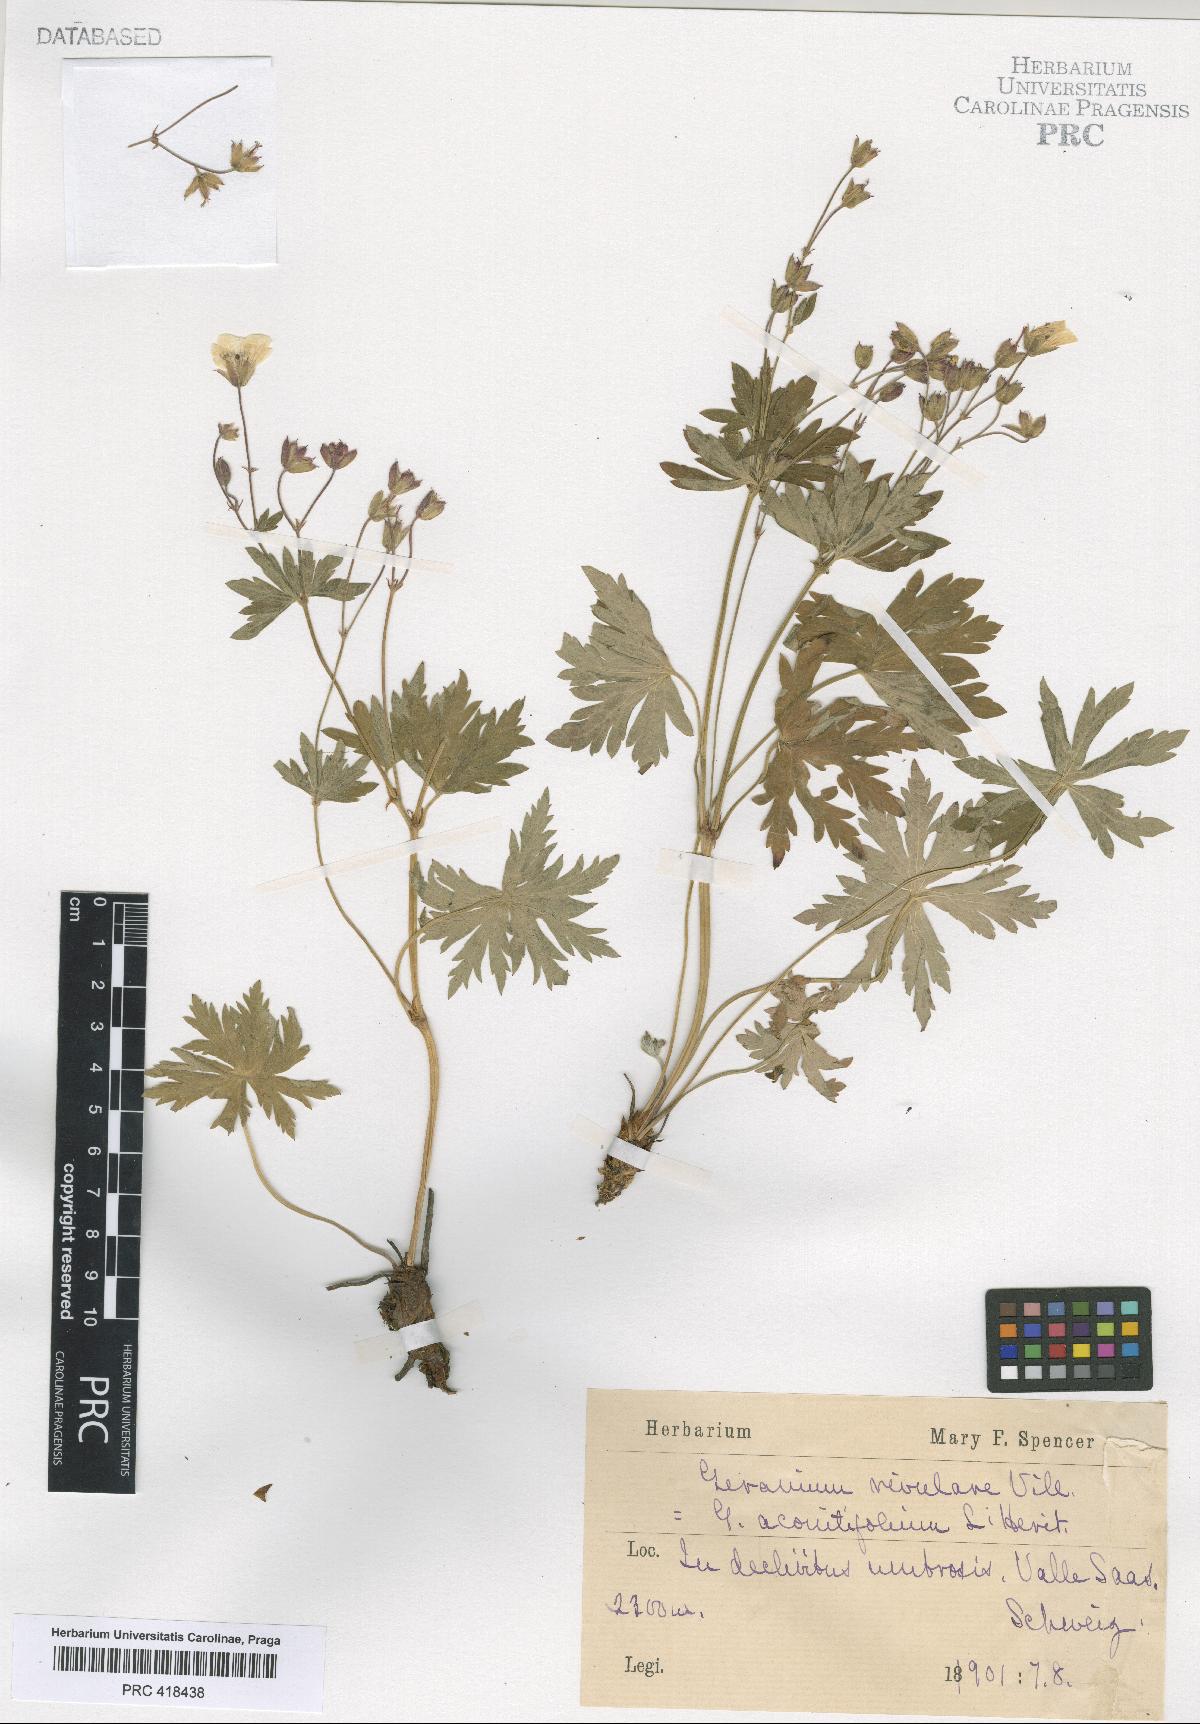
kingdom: Plantae
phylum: Tracheophyta
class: Magnoliopsida
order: Geraniales
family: Geraniaceae
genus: Geranium
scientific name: Geranium rivulare
